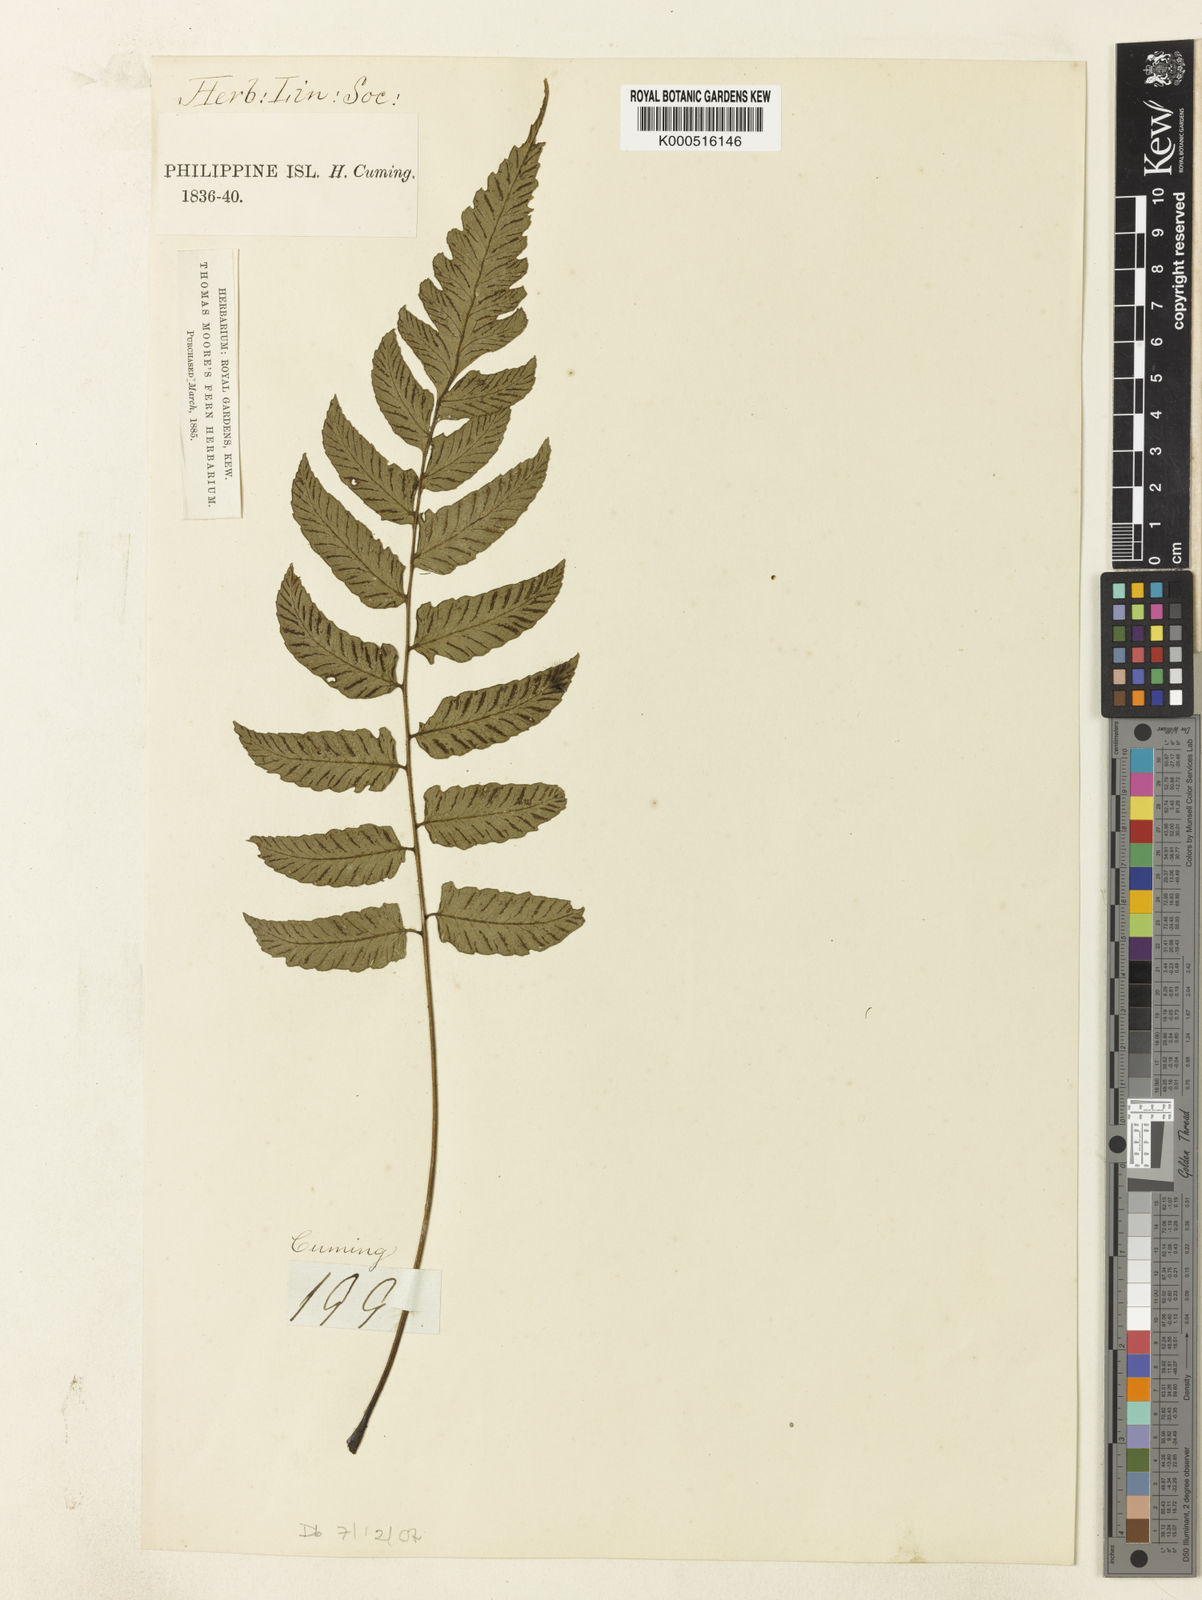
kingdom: Plantae
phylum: Tracheophyta
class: Polypodiopsida
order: Polypodiales
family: Athyriaceae
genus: Diplazium
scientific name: Diplazium cultratum
